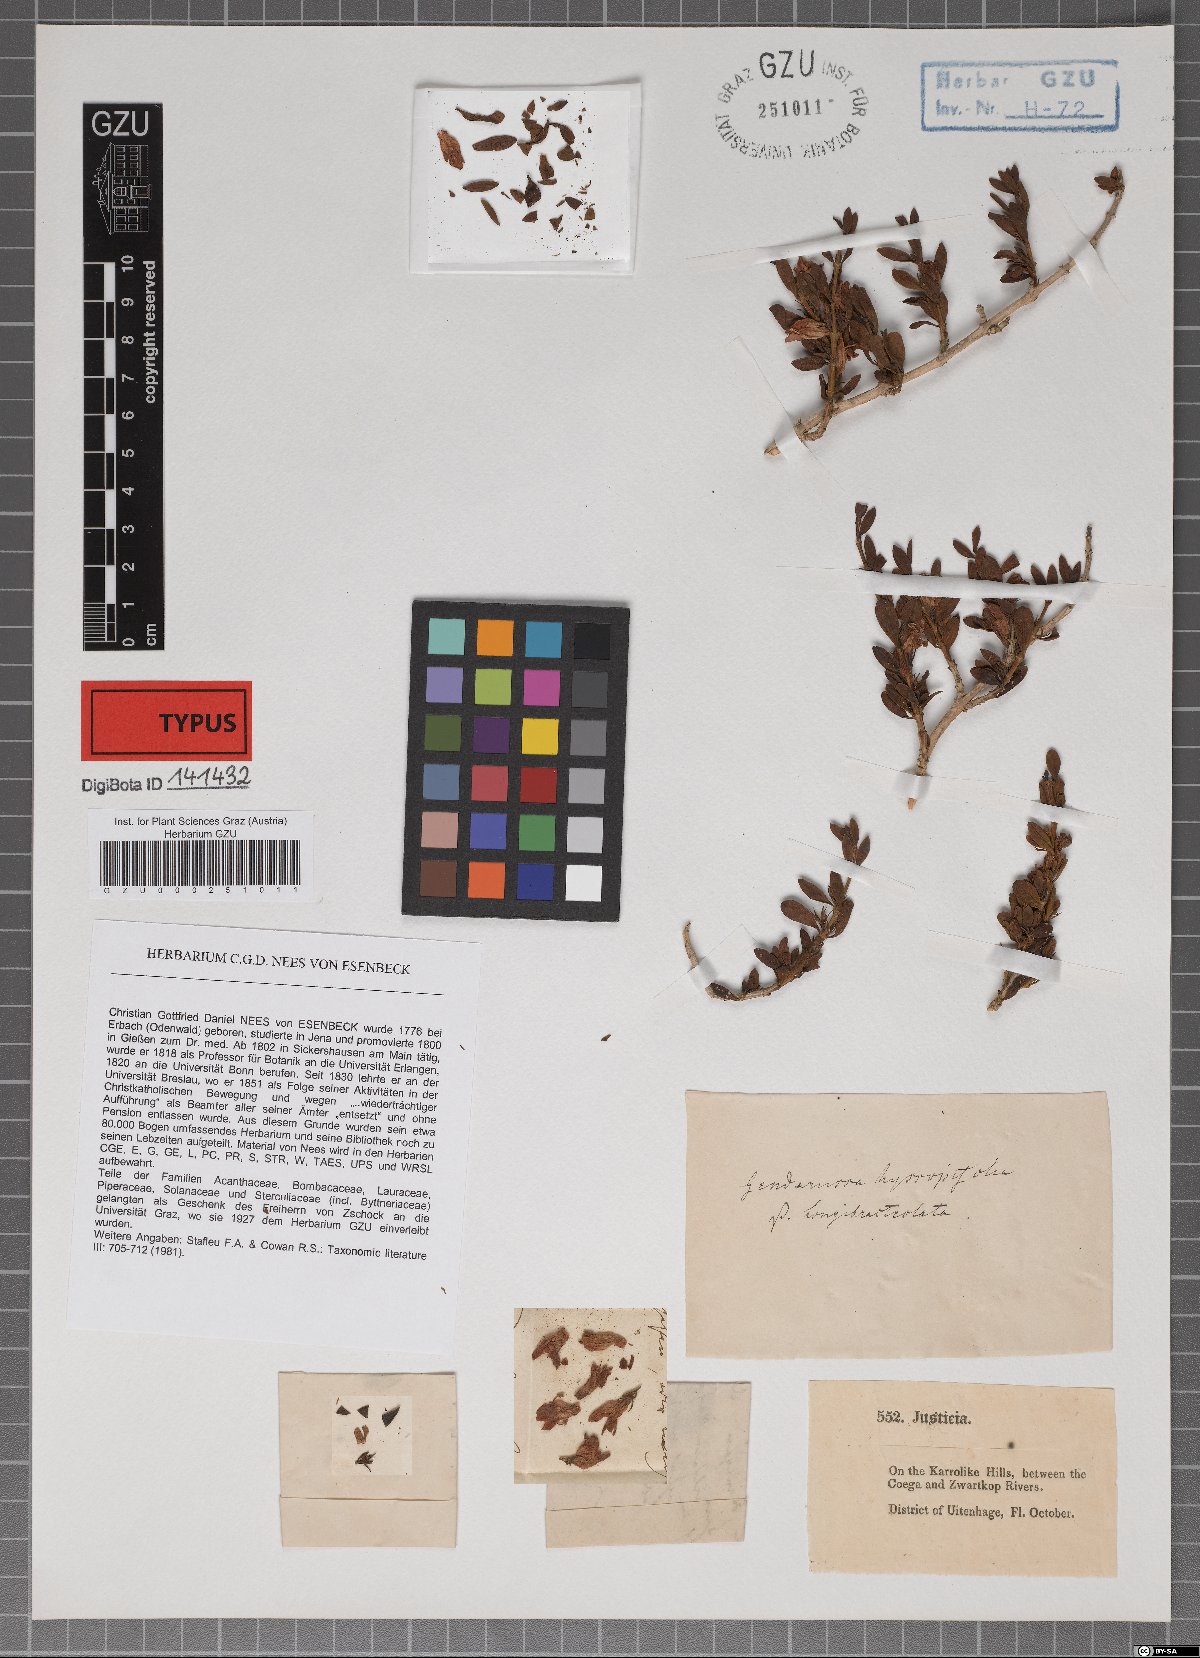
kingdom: Plantae
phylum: Tracheophyta
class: Magnoliopsida
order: Lamiales
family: Acanthaceae
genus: Justicia
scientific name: Justicia hyssopifolia
